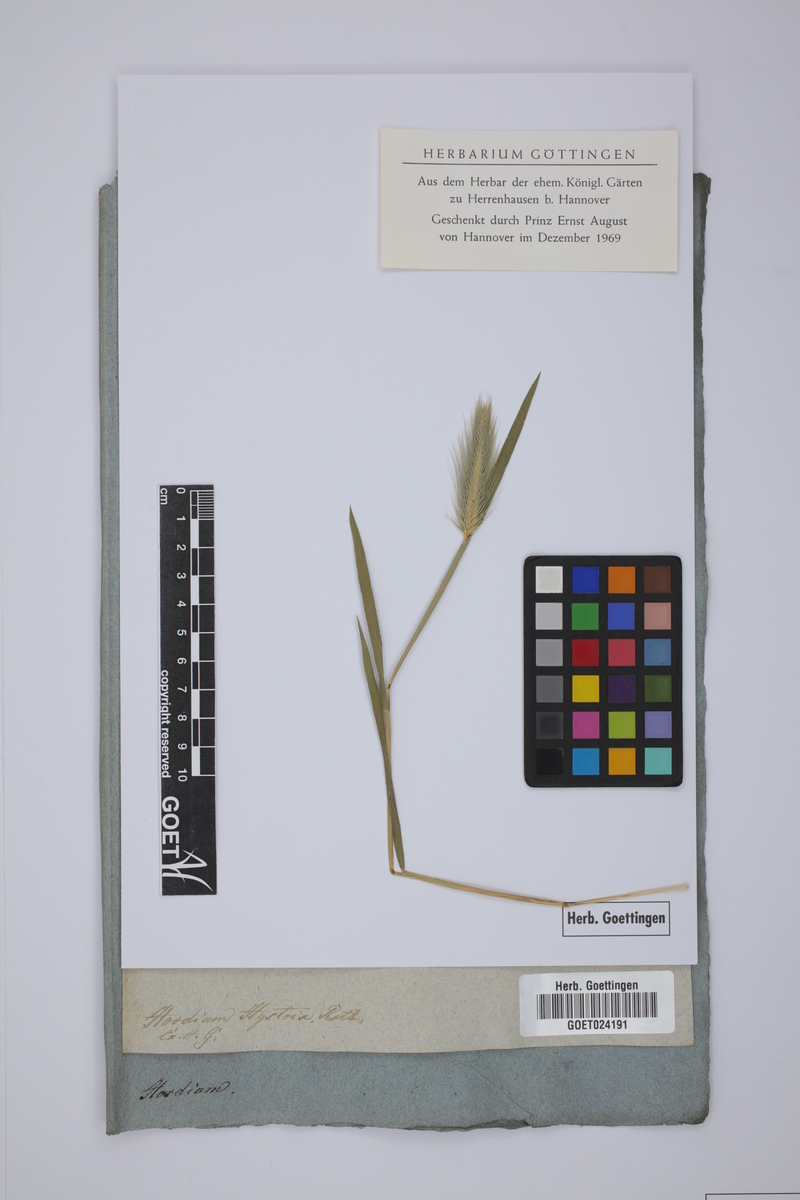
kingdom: Plantae
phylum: Tracheophyta
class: Liliopsida
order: Poales
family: Poaceae
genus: Hordeum
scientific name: Hordeum marinum
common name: Sea barley
